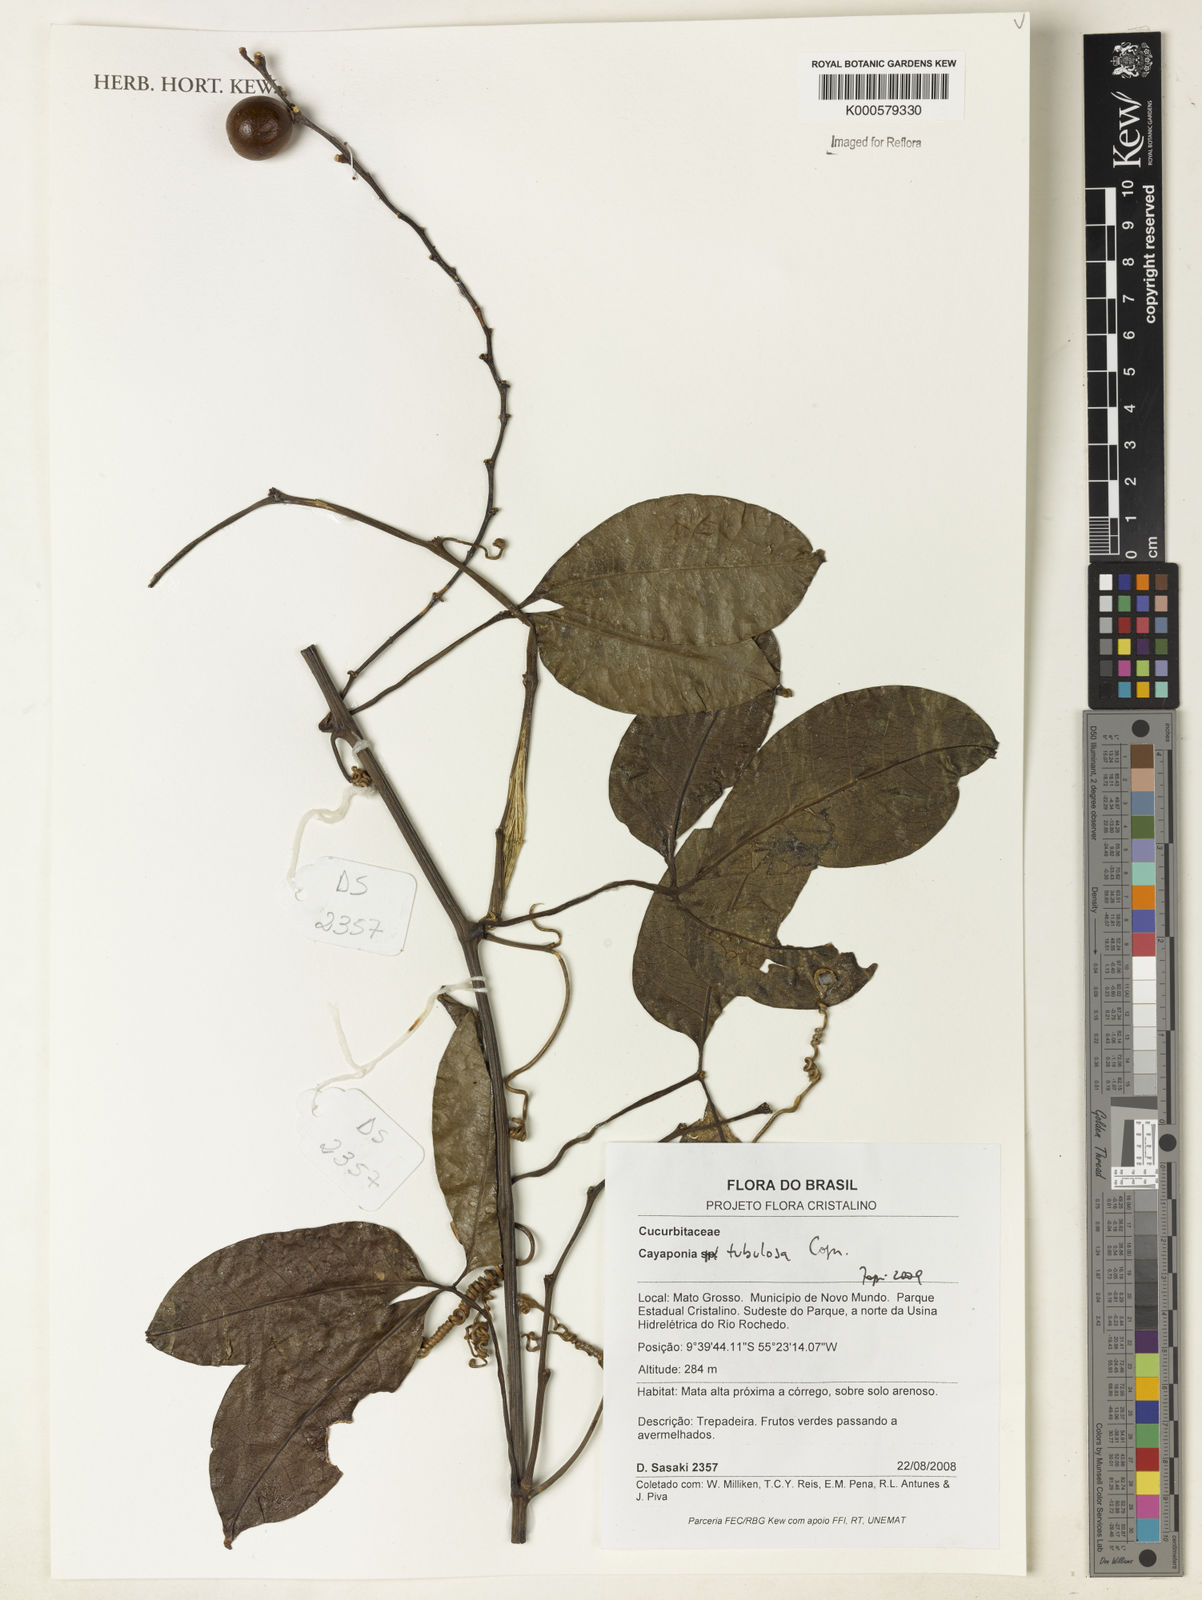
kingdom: Plantae
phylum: Tracheophyta
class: Magnoliopsida
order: Cucurbitales
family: Cucurbitaceae
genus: Cayaponia
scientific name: Cayaponia tubulosa
